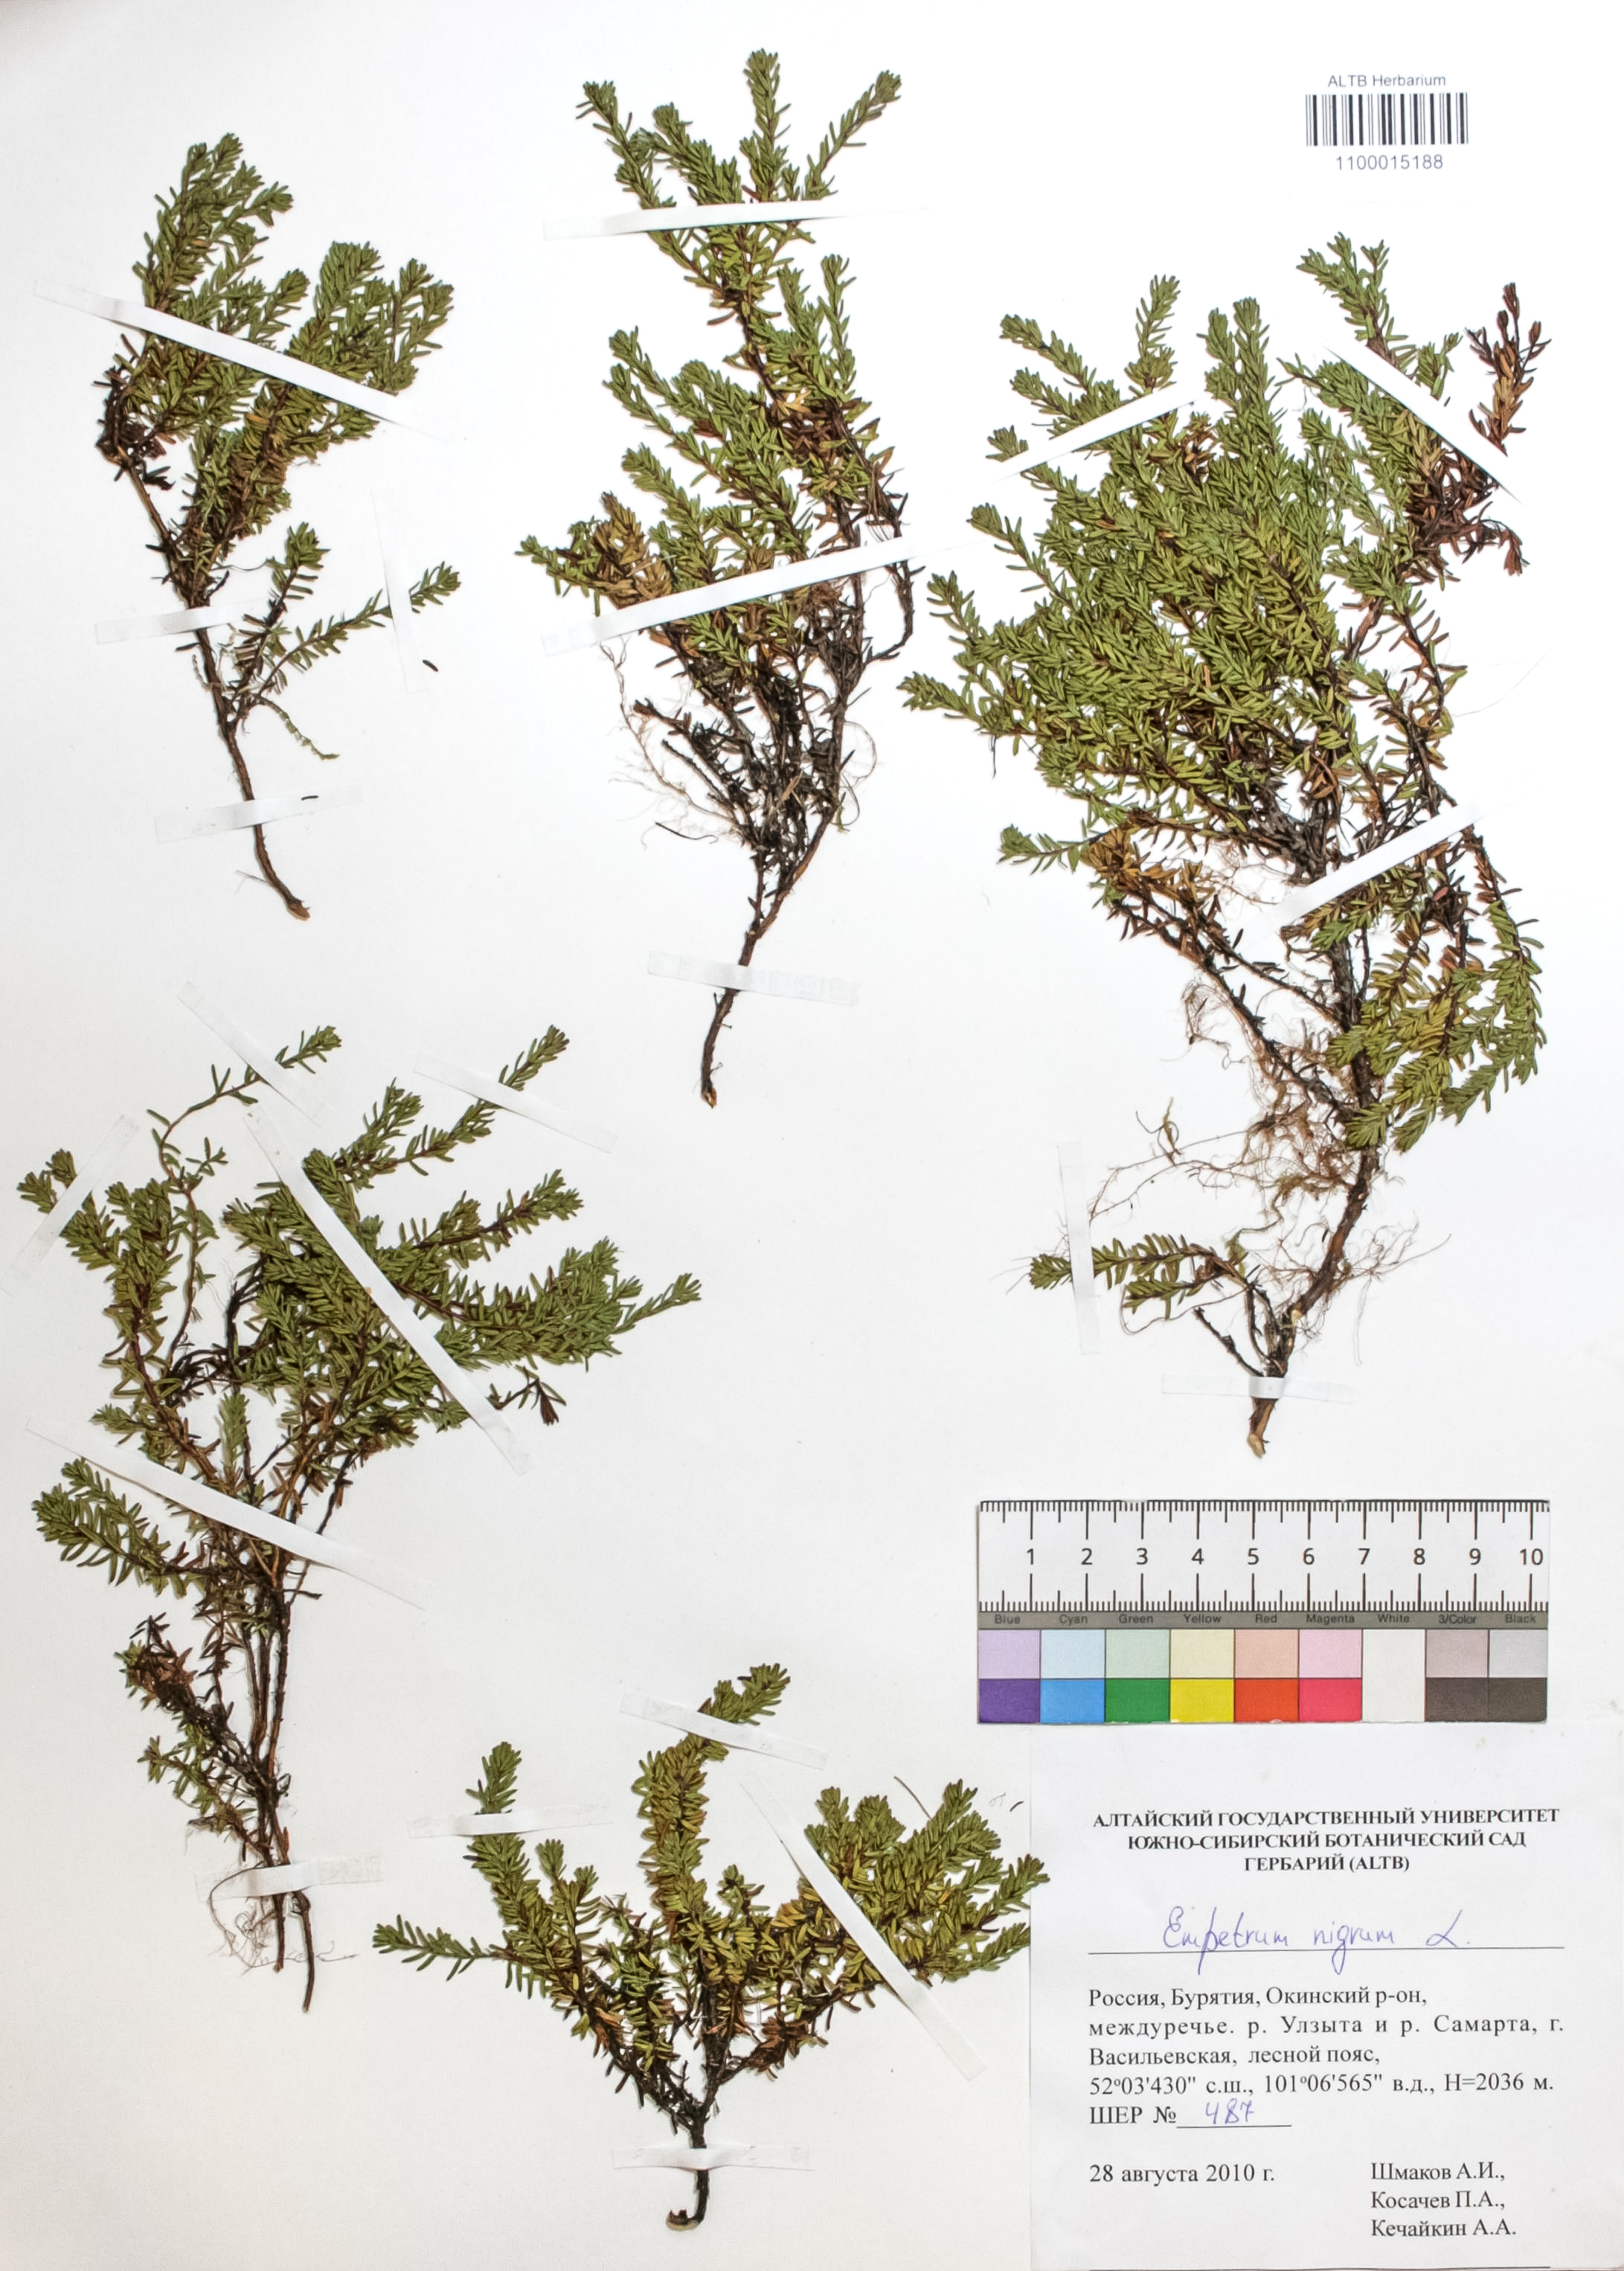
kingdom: Plantae
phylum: Tracheophyta
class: Magnoliopsida
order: Ericales
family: Ericaceae
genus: Empetrum
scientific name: Empetrum nigrum
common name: Black crowberry
